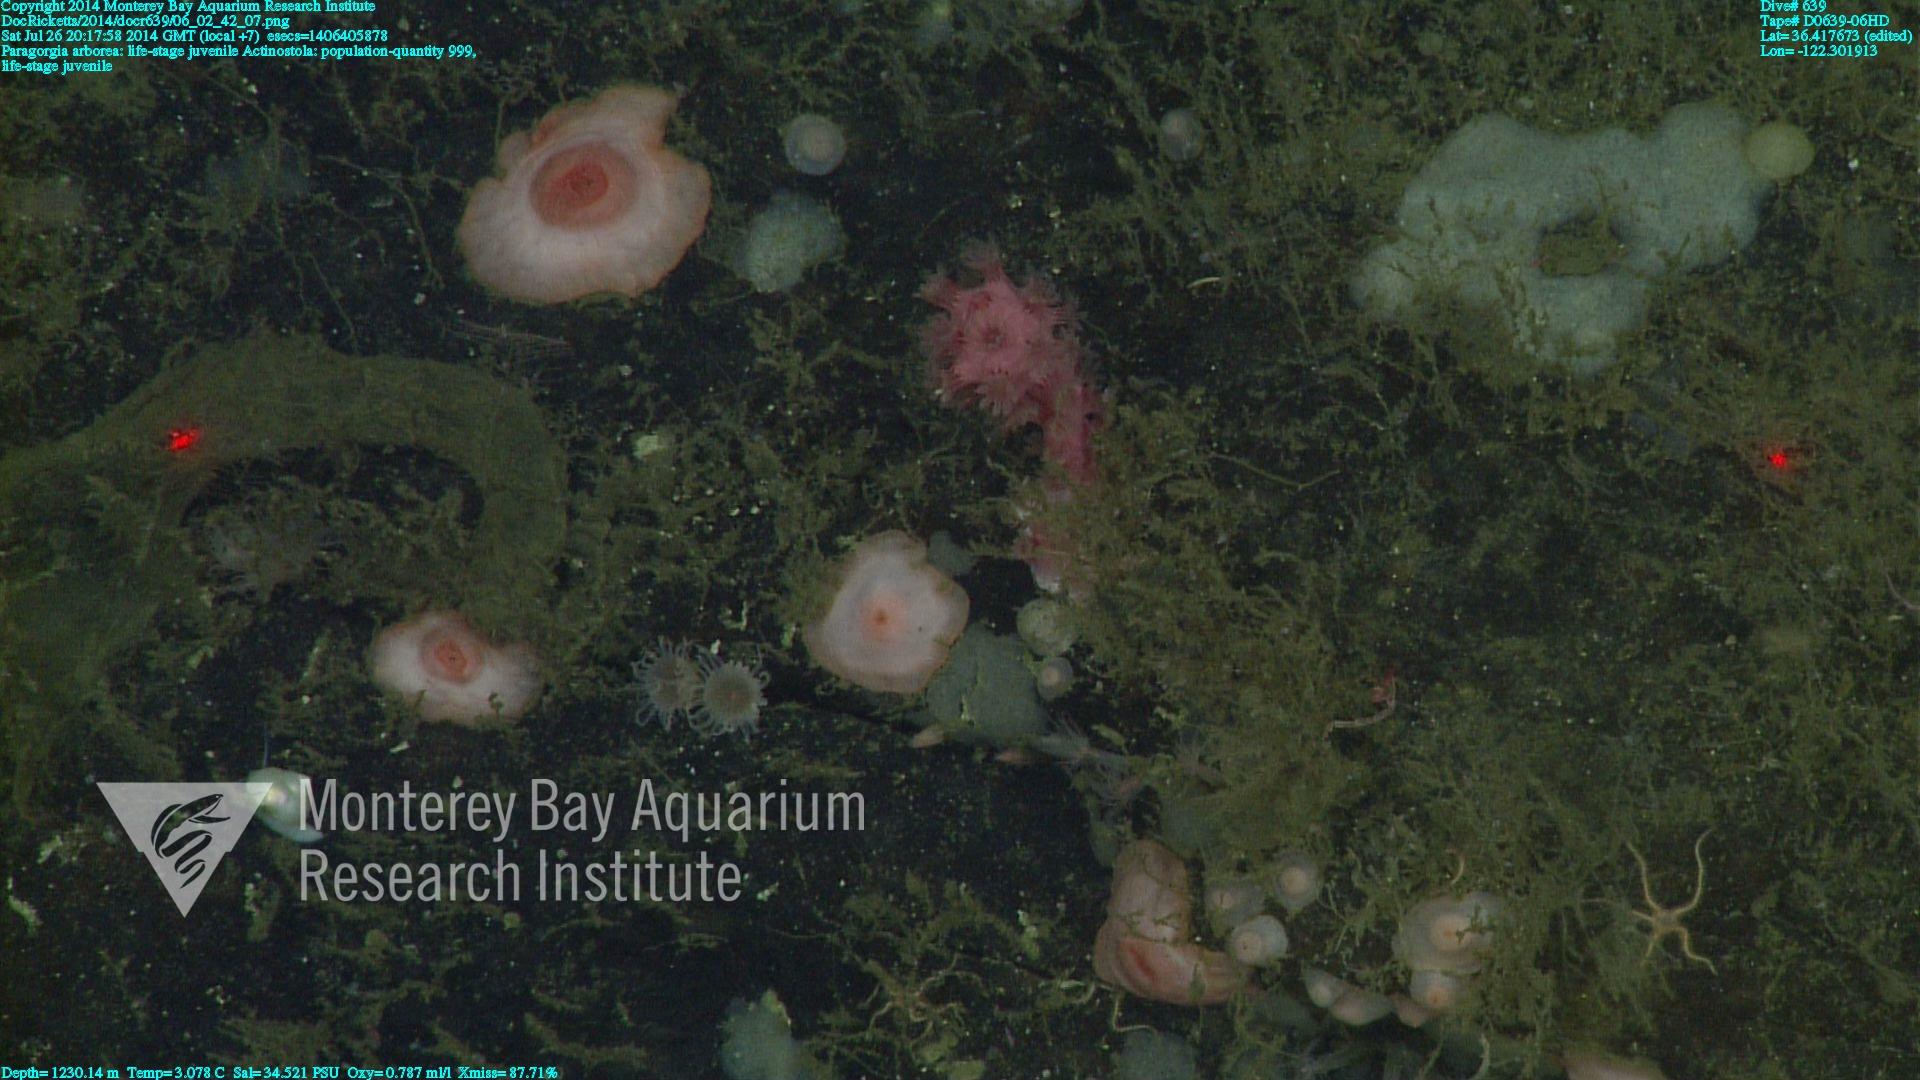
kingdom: Animalia
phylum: Cnidaria
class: Anthozoa
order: Scleralcyonacea
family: Coralliidae
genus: Paragorgia
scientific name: Paragorgia arborea
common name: Bubble gum coral
